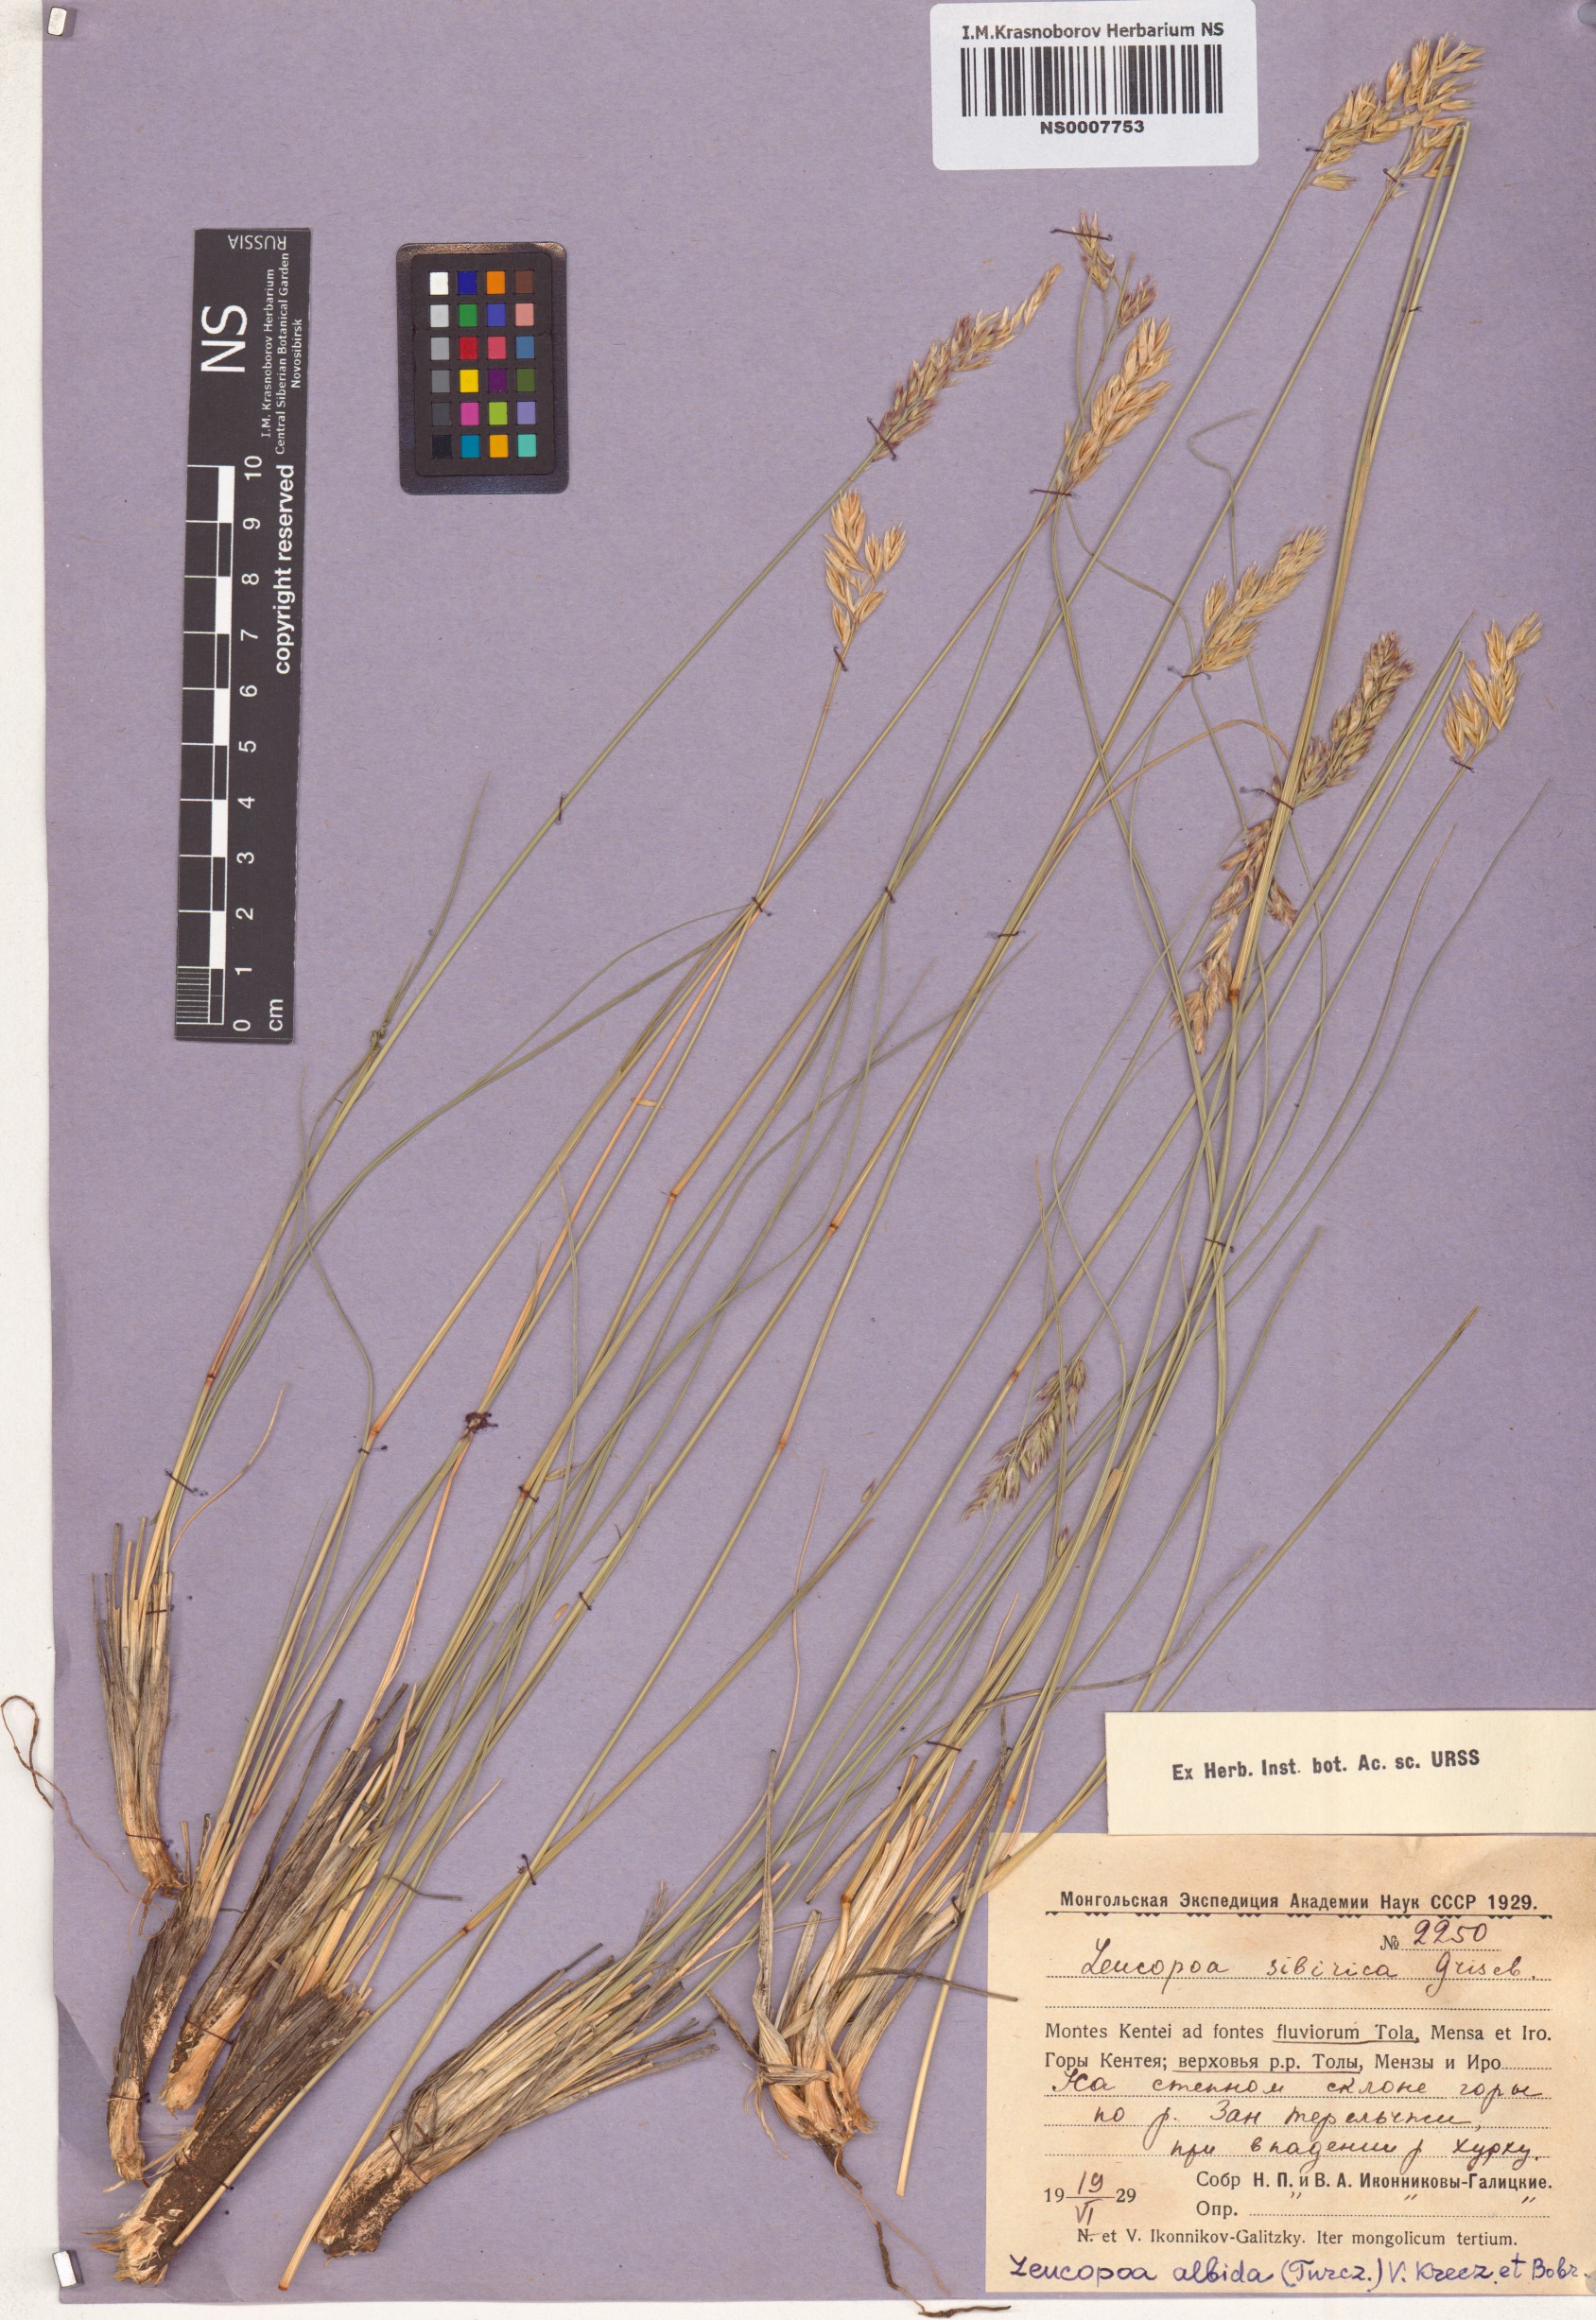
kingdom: Plantae
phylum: Tracheophyta
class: Liliopsida
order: Poales
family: Poaceae
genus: Festuca
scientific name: Festuca sibirica
